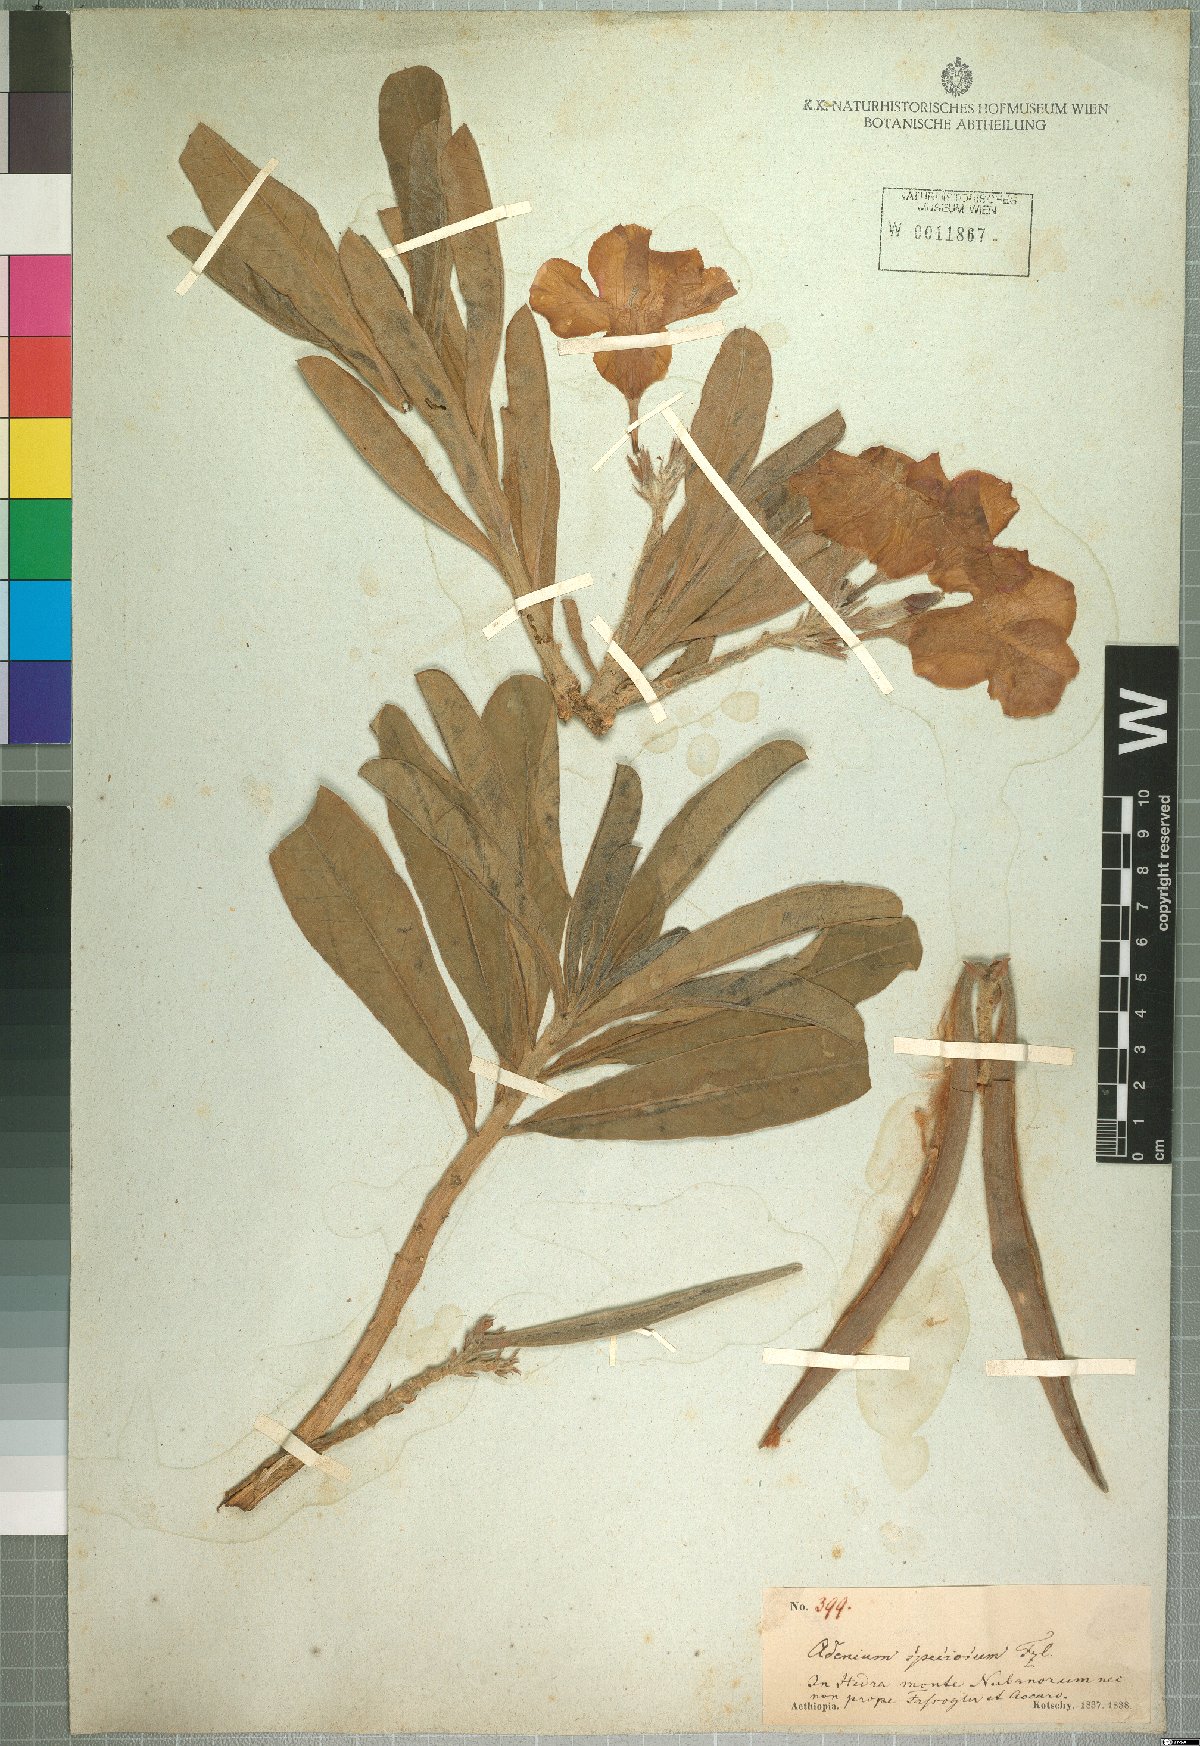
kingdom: Plantae
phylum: Tracheophyta
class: Magnoliopsida
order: Gentianales
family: Apocynaceae
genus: Adenium
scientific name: Adenium obesum
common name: Desert-rose
